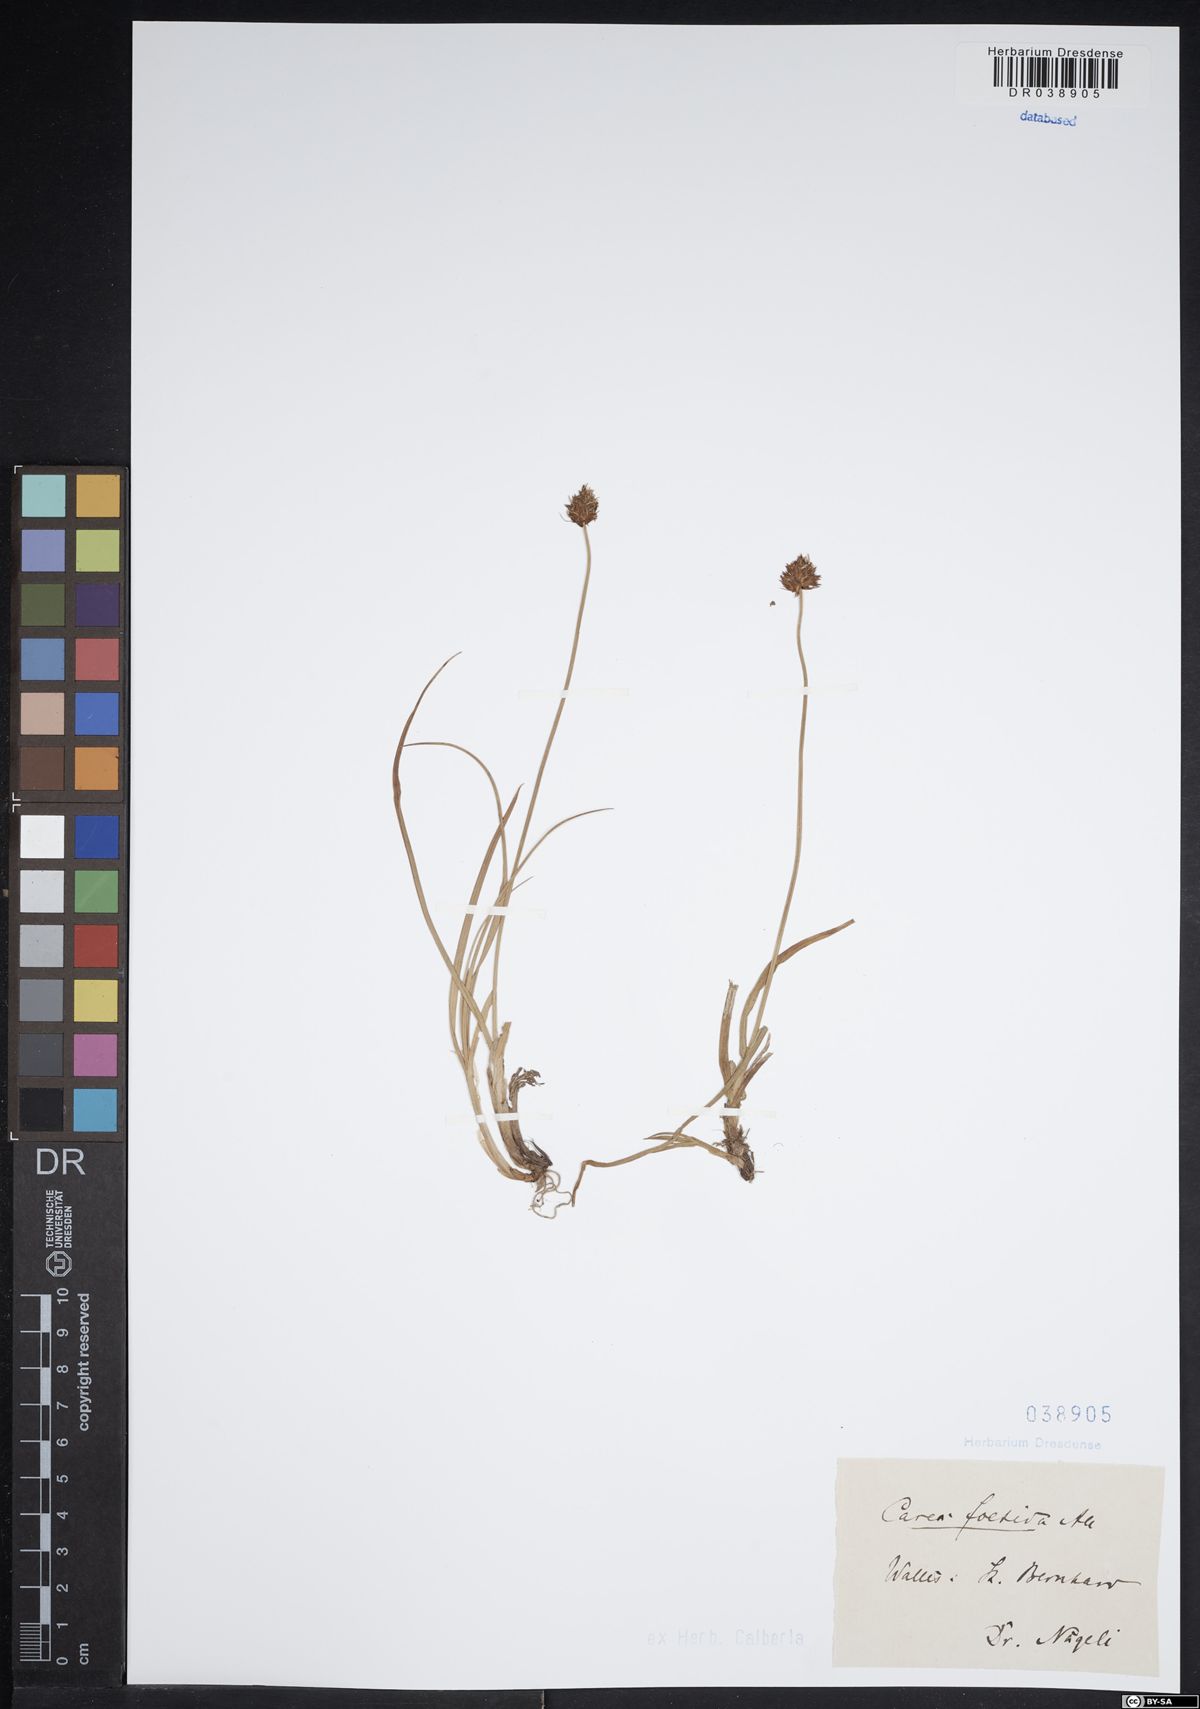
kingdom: Plantae
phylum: Tracheophyta
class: Liliopsida
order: Poales
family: Cyperaceae
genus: Carex
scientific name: Carex foetida
